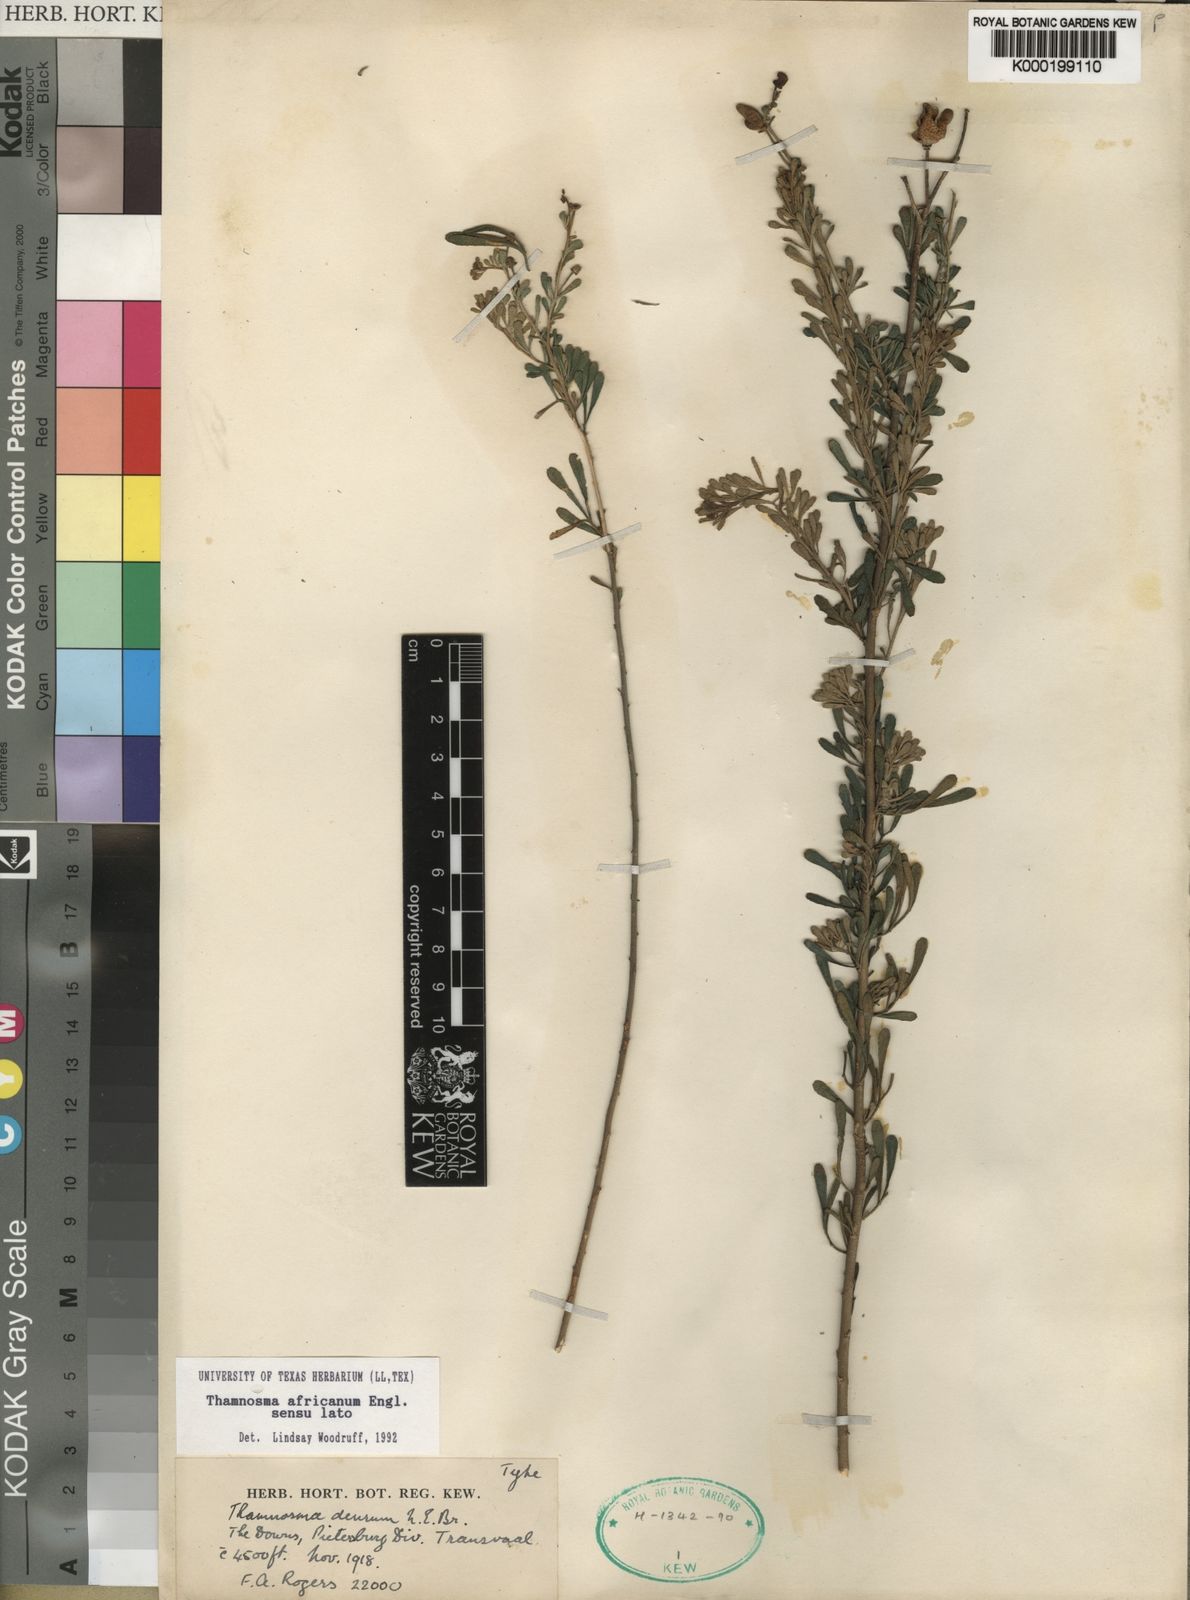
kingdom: Plantae
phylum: Tracheophyta
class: Magnoliopsida
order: Sapindales
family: Rutaceae
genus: Thamnosma
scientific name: Thamnosma
